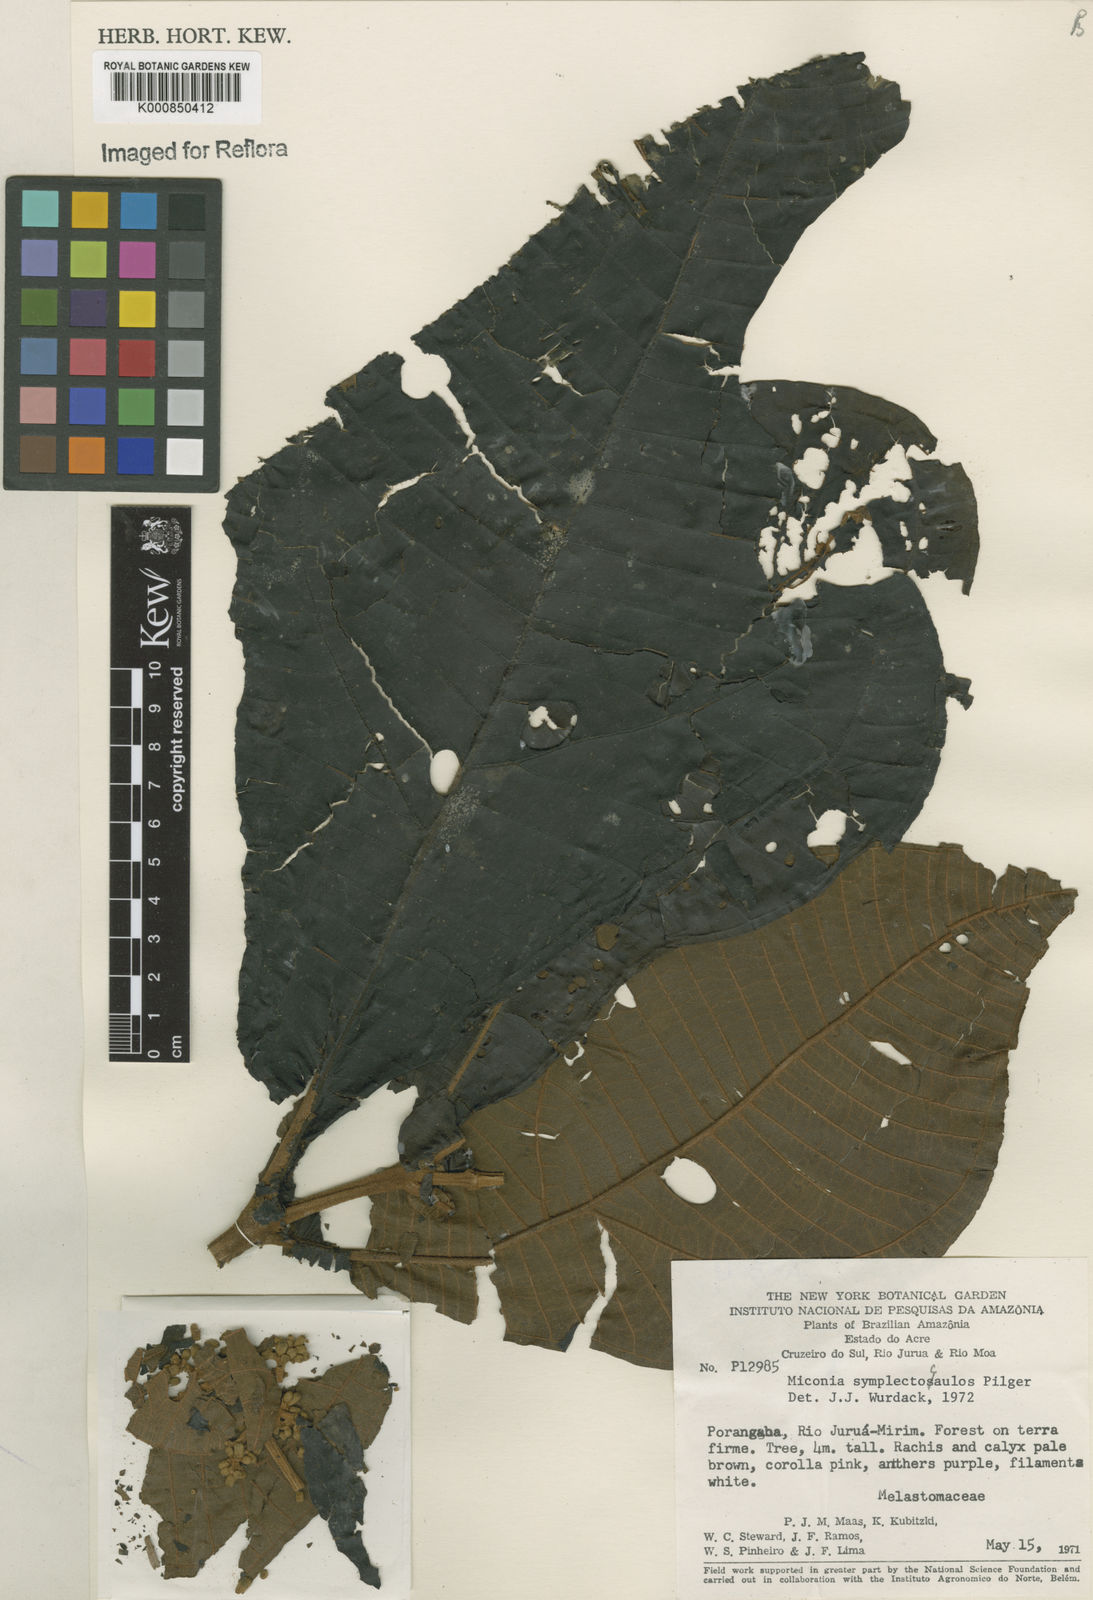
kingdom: Plantae
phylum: Tracheophyta
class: Magnoliopsida
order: Myrtales
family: Melastomataceae
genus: Miconia
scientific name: Miconia symplectocaulos
